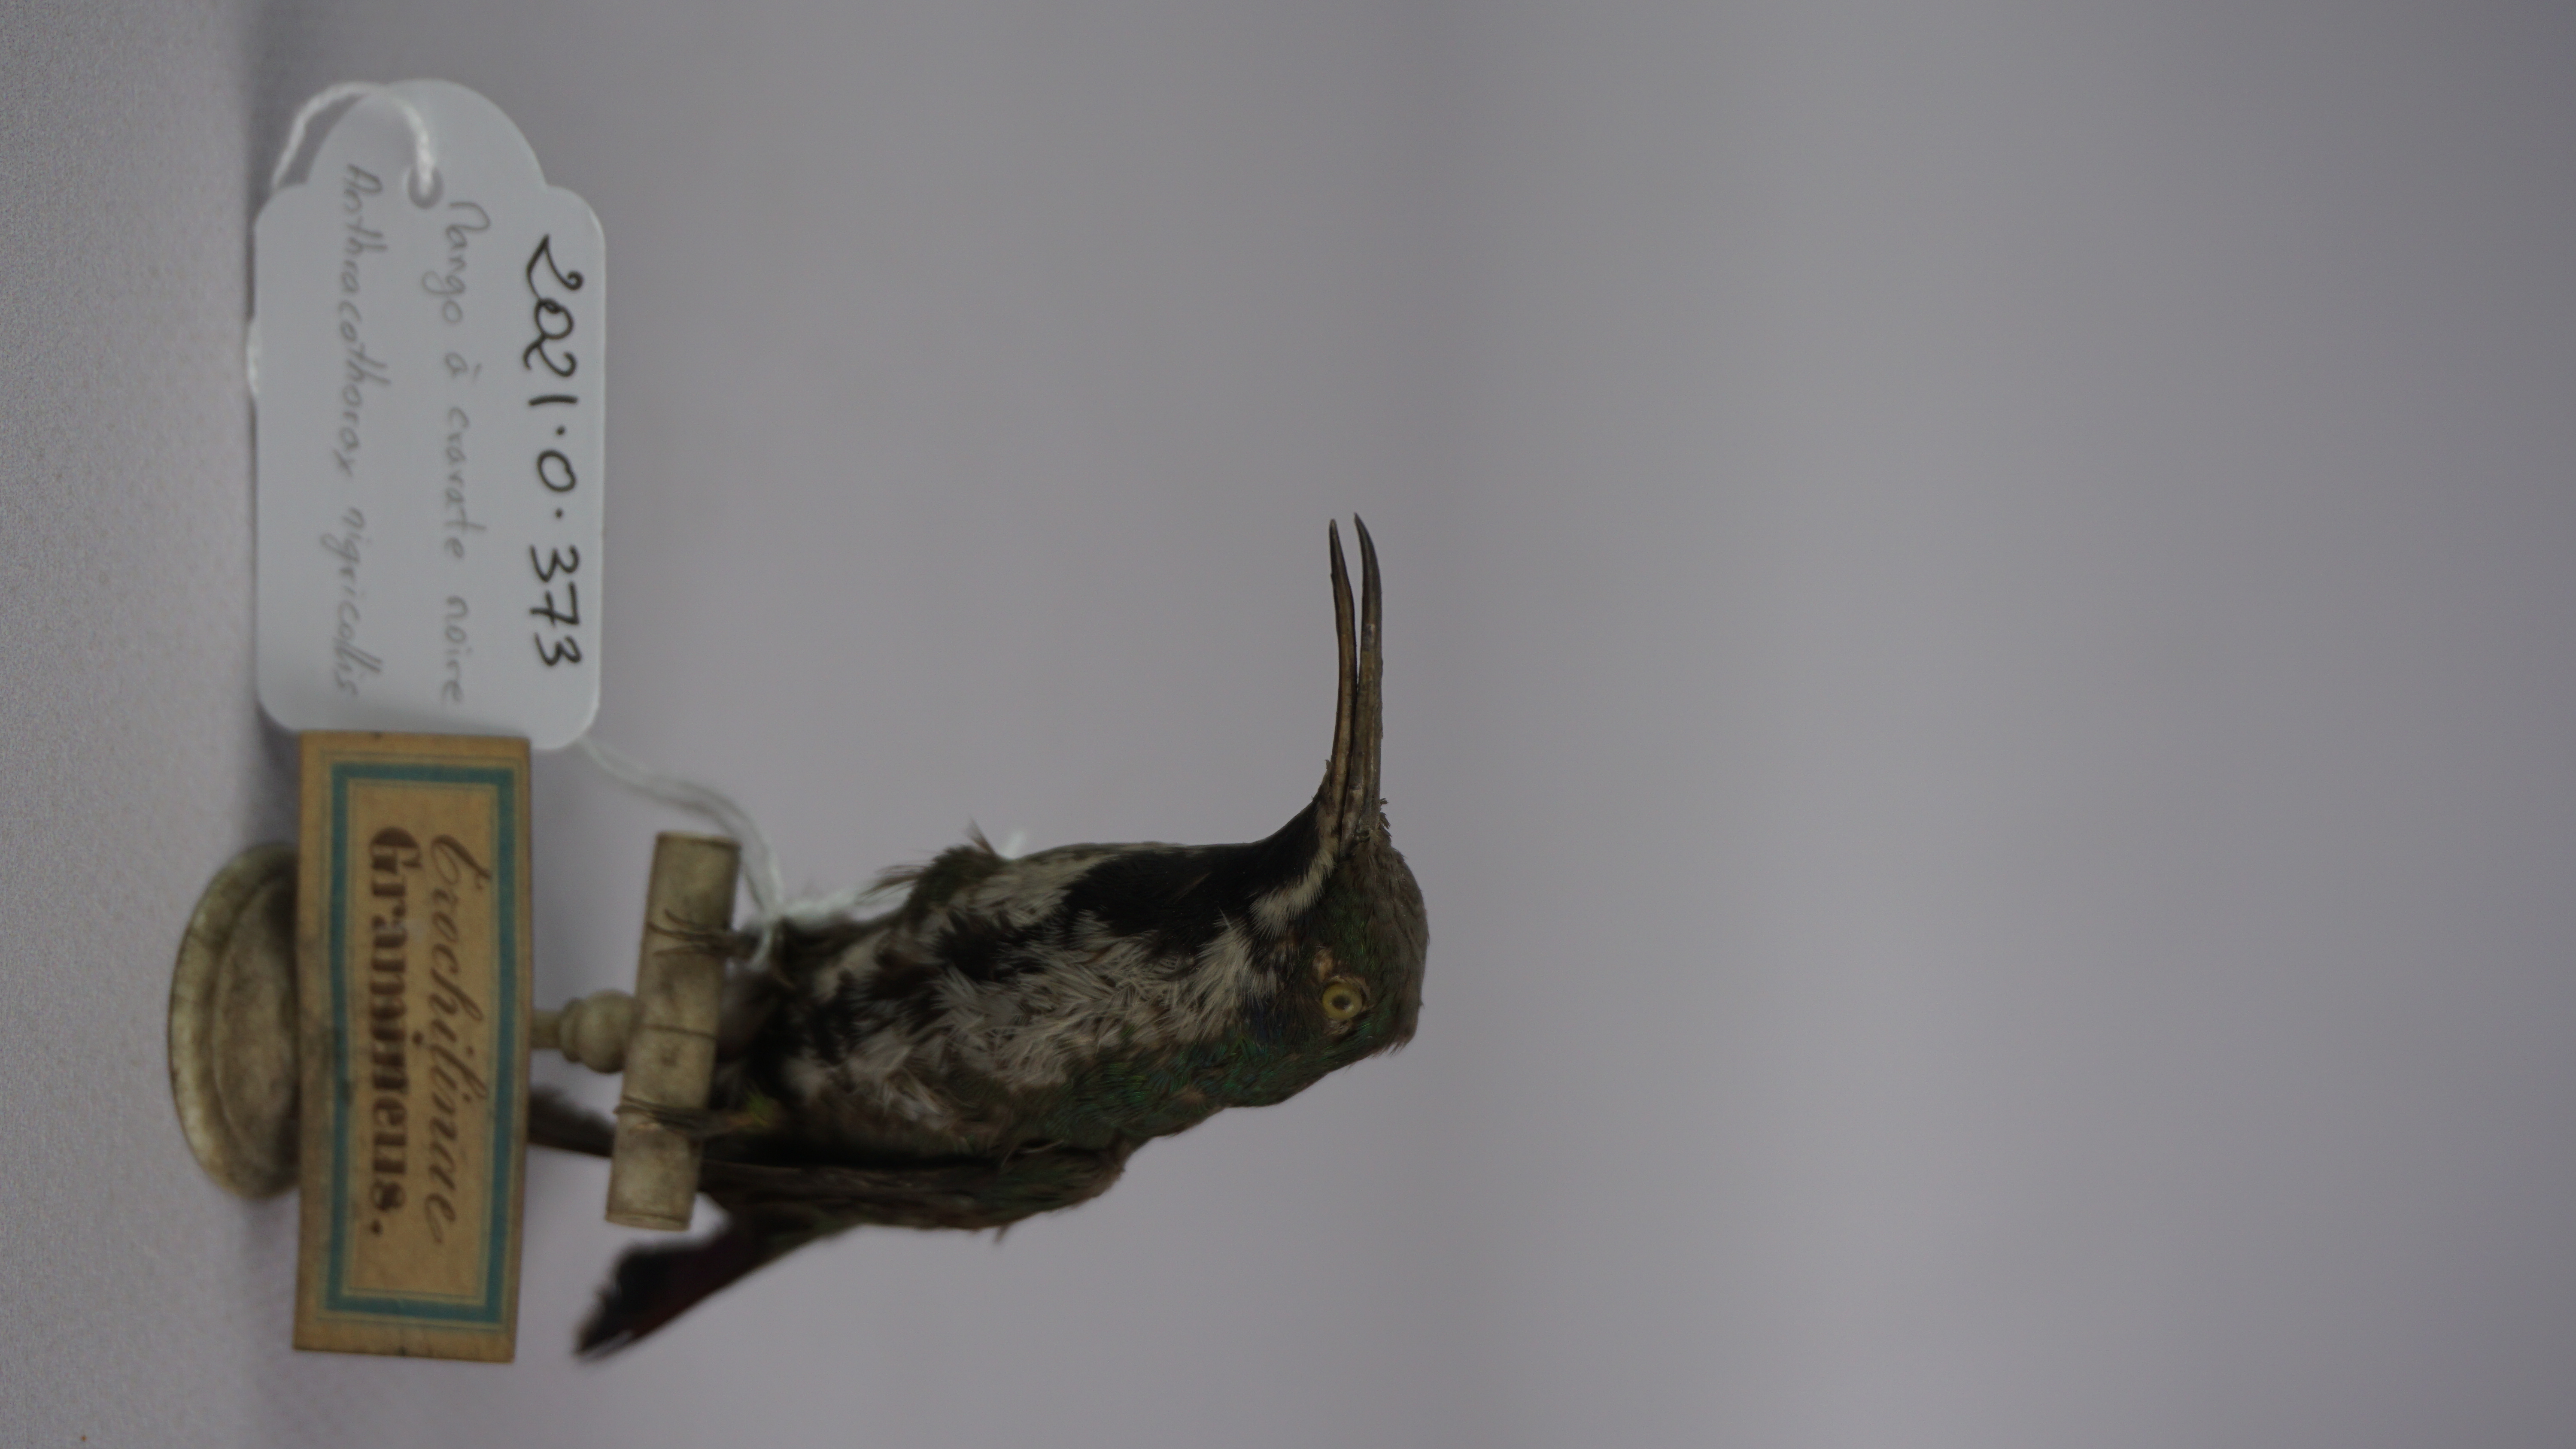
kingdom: Animalia
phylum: Chordata
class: Aves
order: Apodiformes
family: Trochilidae
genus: Anthracothorax
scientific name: Anthracothorax nigricollis
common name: Black-throated mango
